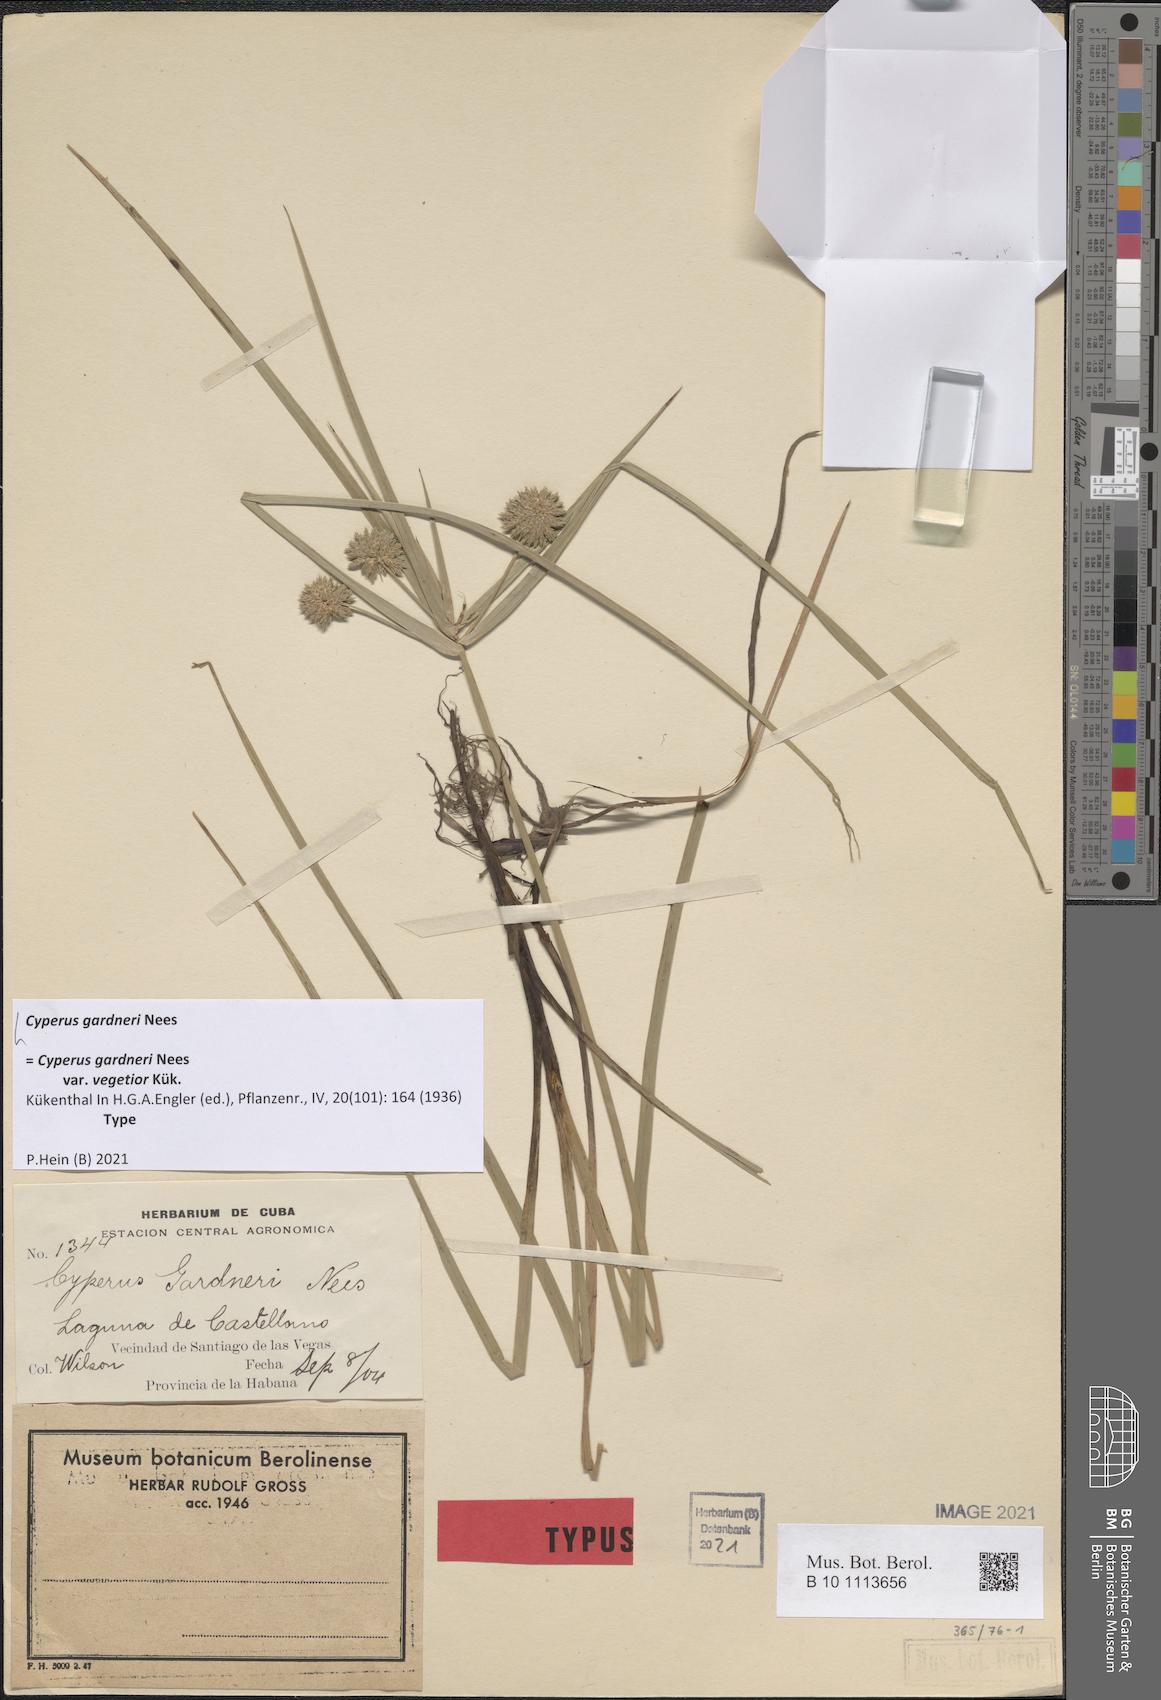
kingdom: Plantae
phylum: Tracheophyta
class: Liliopsida
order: Poales
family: Cyperaceae
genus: Cyperus
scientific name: Cyperus gardneri
